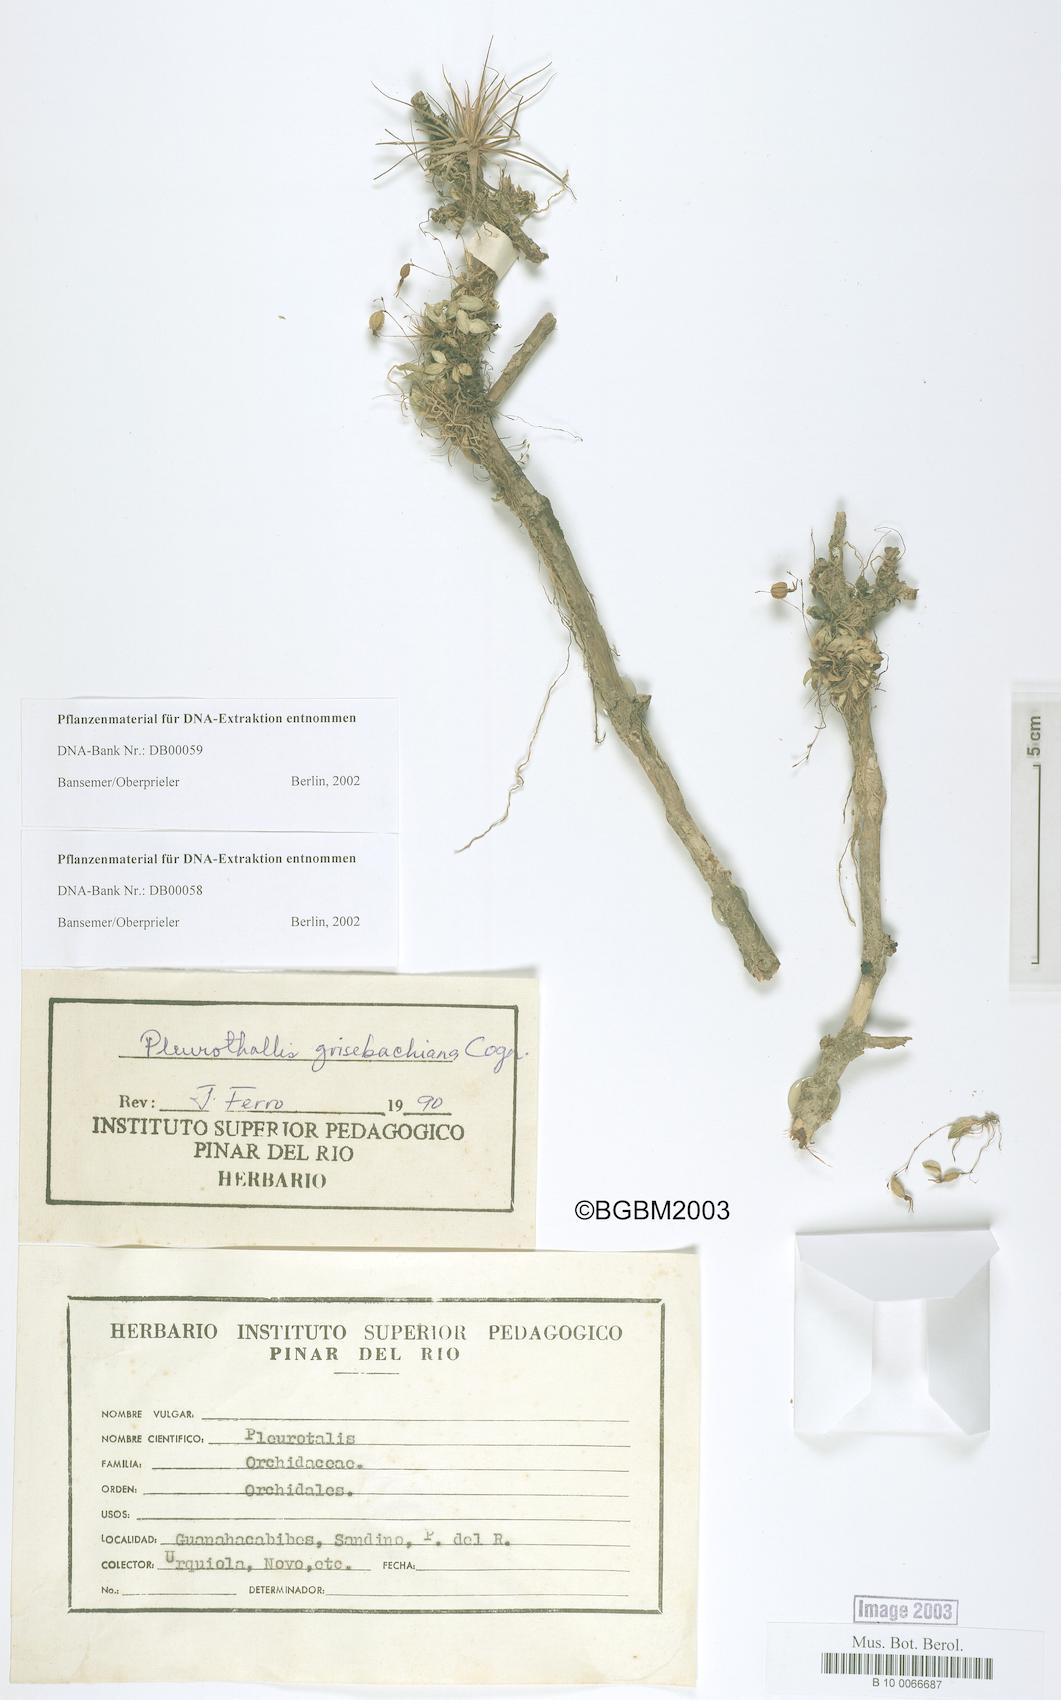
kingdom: Plantae
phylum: Tracheophyta
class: Liliopsida
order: Asparagales
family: Orchidaceae
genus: Specklinia
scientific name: Specklinia grisebachiana
